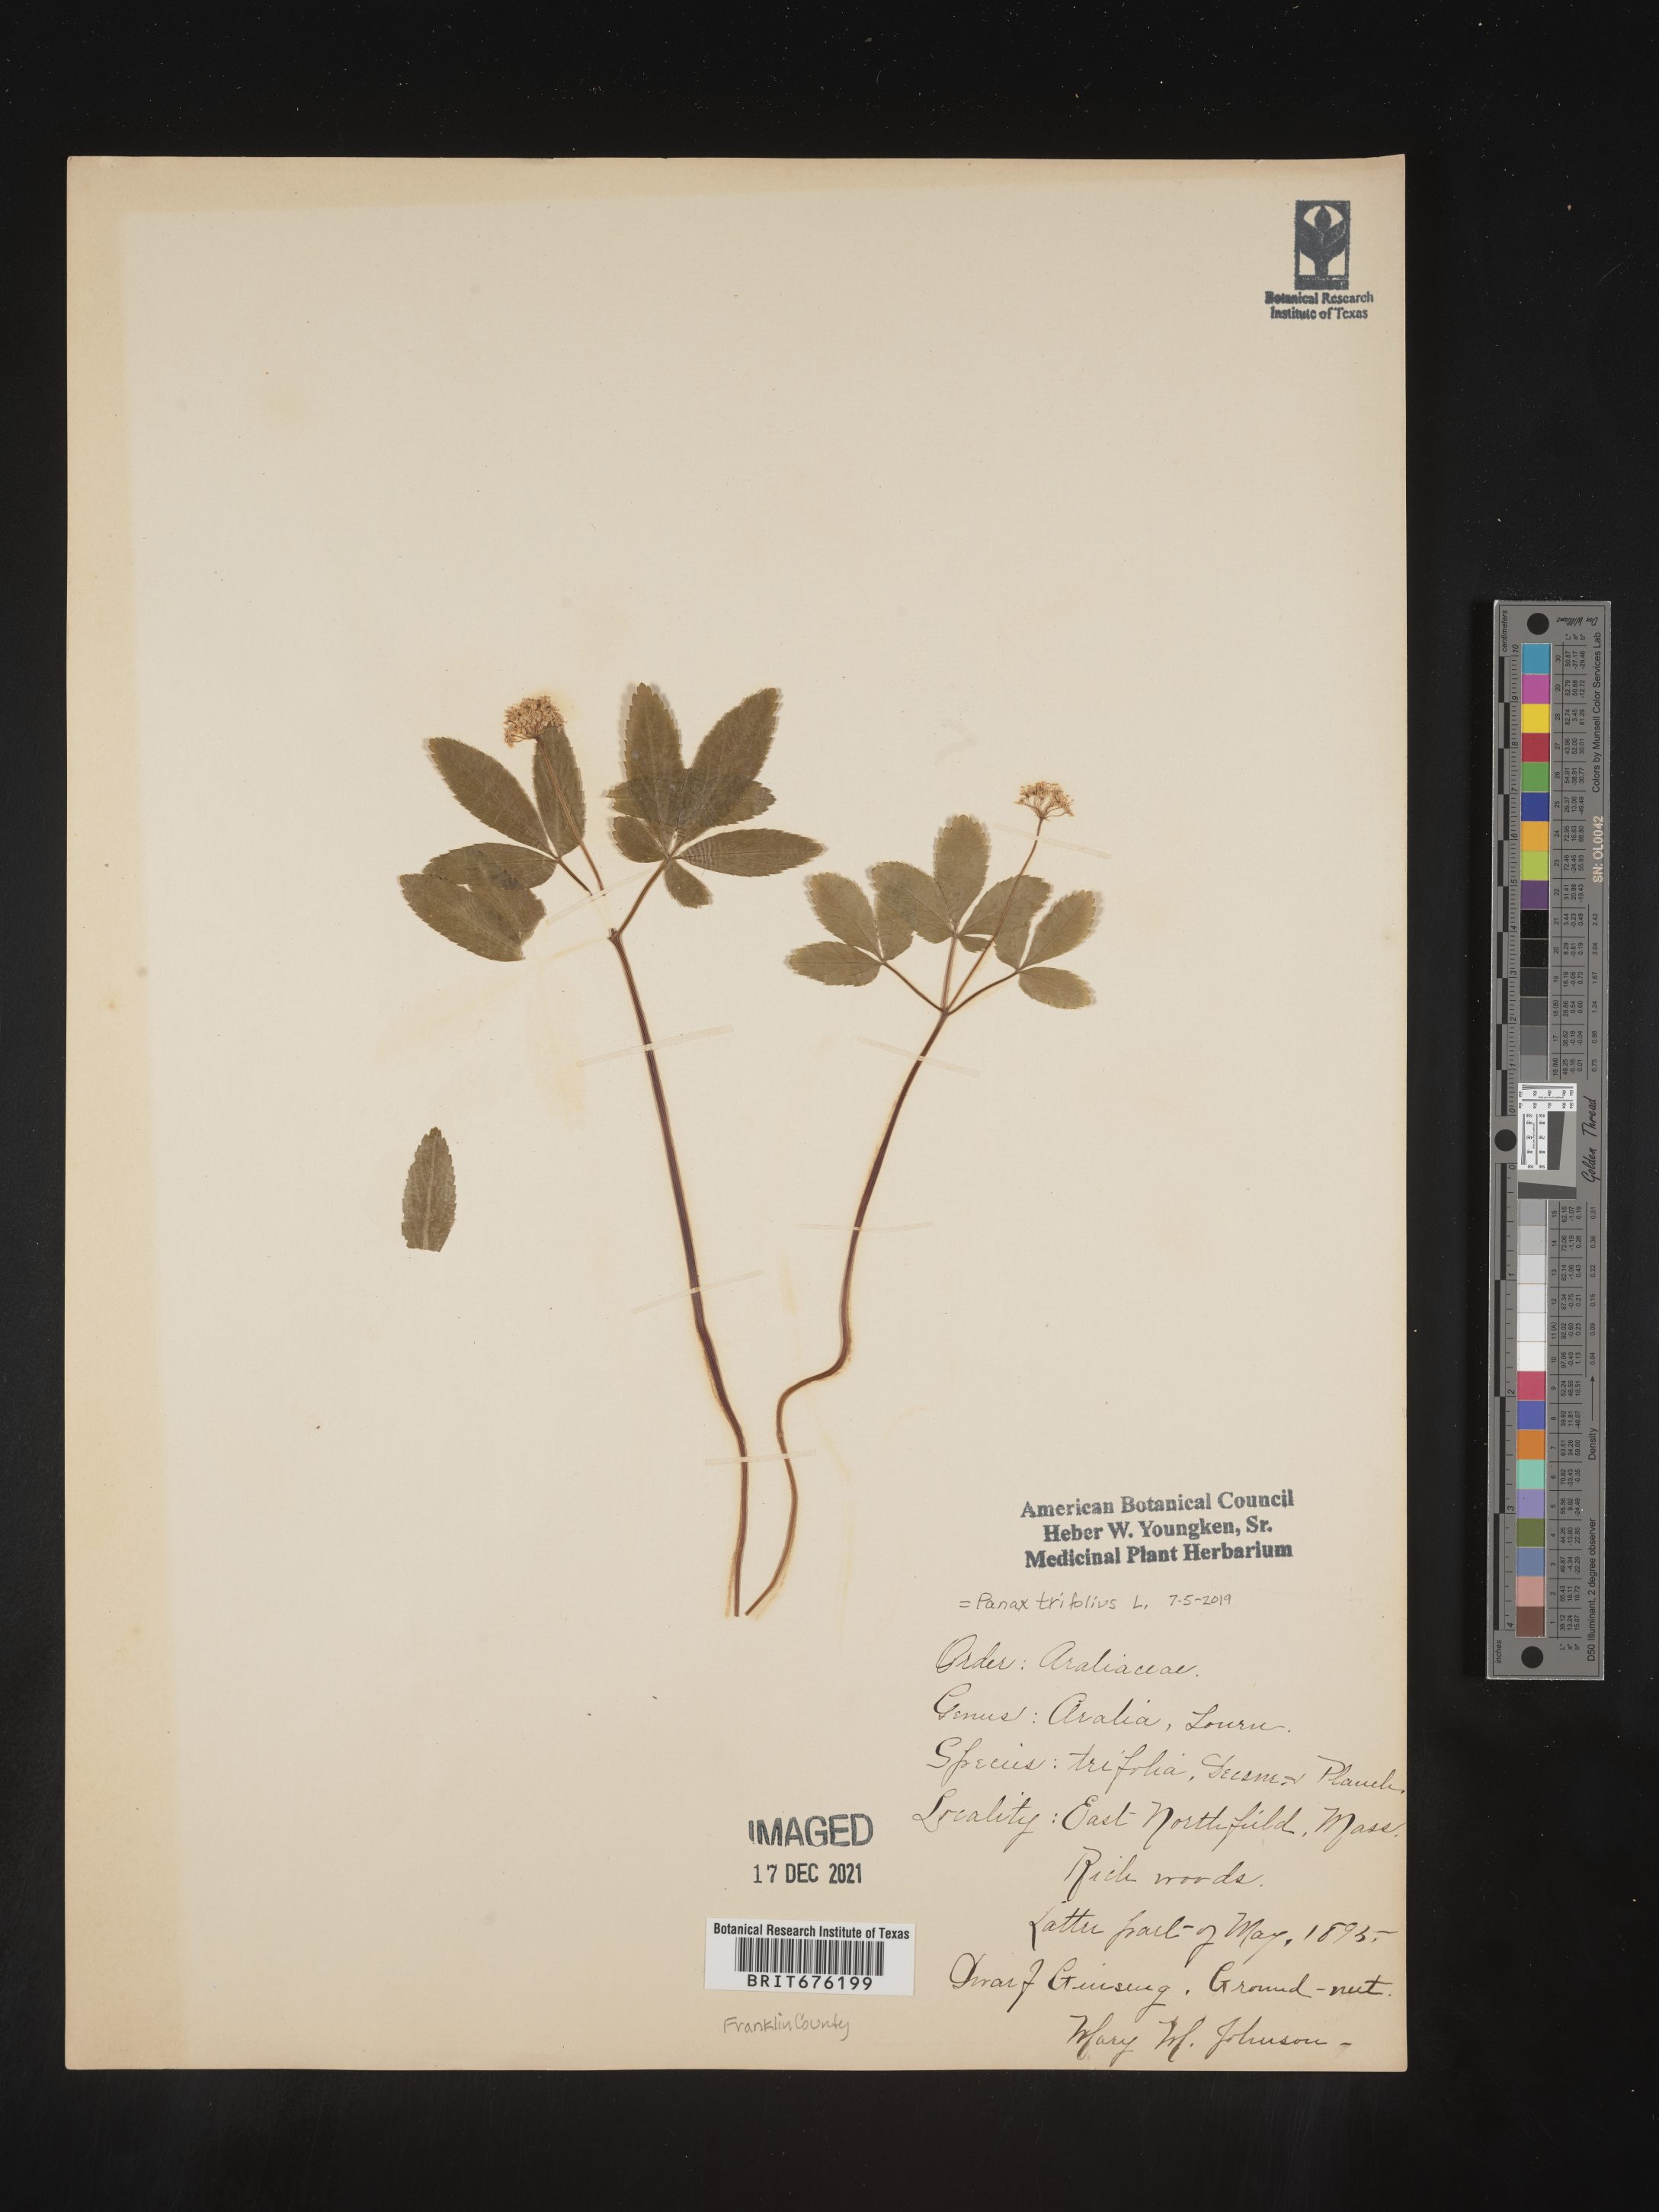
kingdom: Plantae
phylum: Tracheophyta
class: Magnoliopsida
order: Apiales
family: Araliaceae
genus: Panax
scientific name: Panax trifolius
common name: Dwarf ginseng
